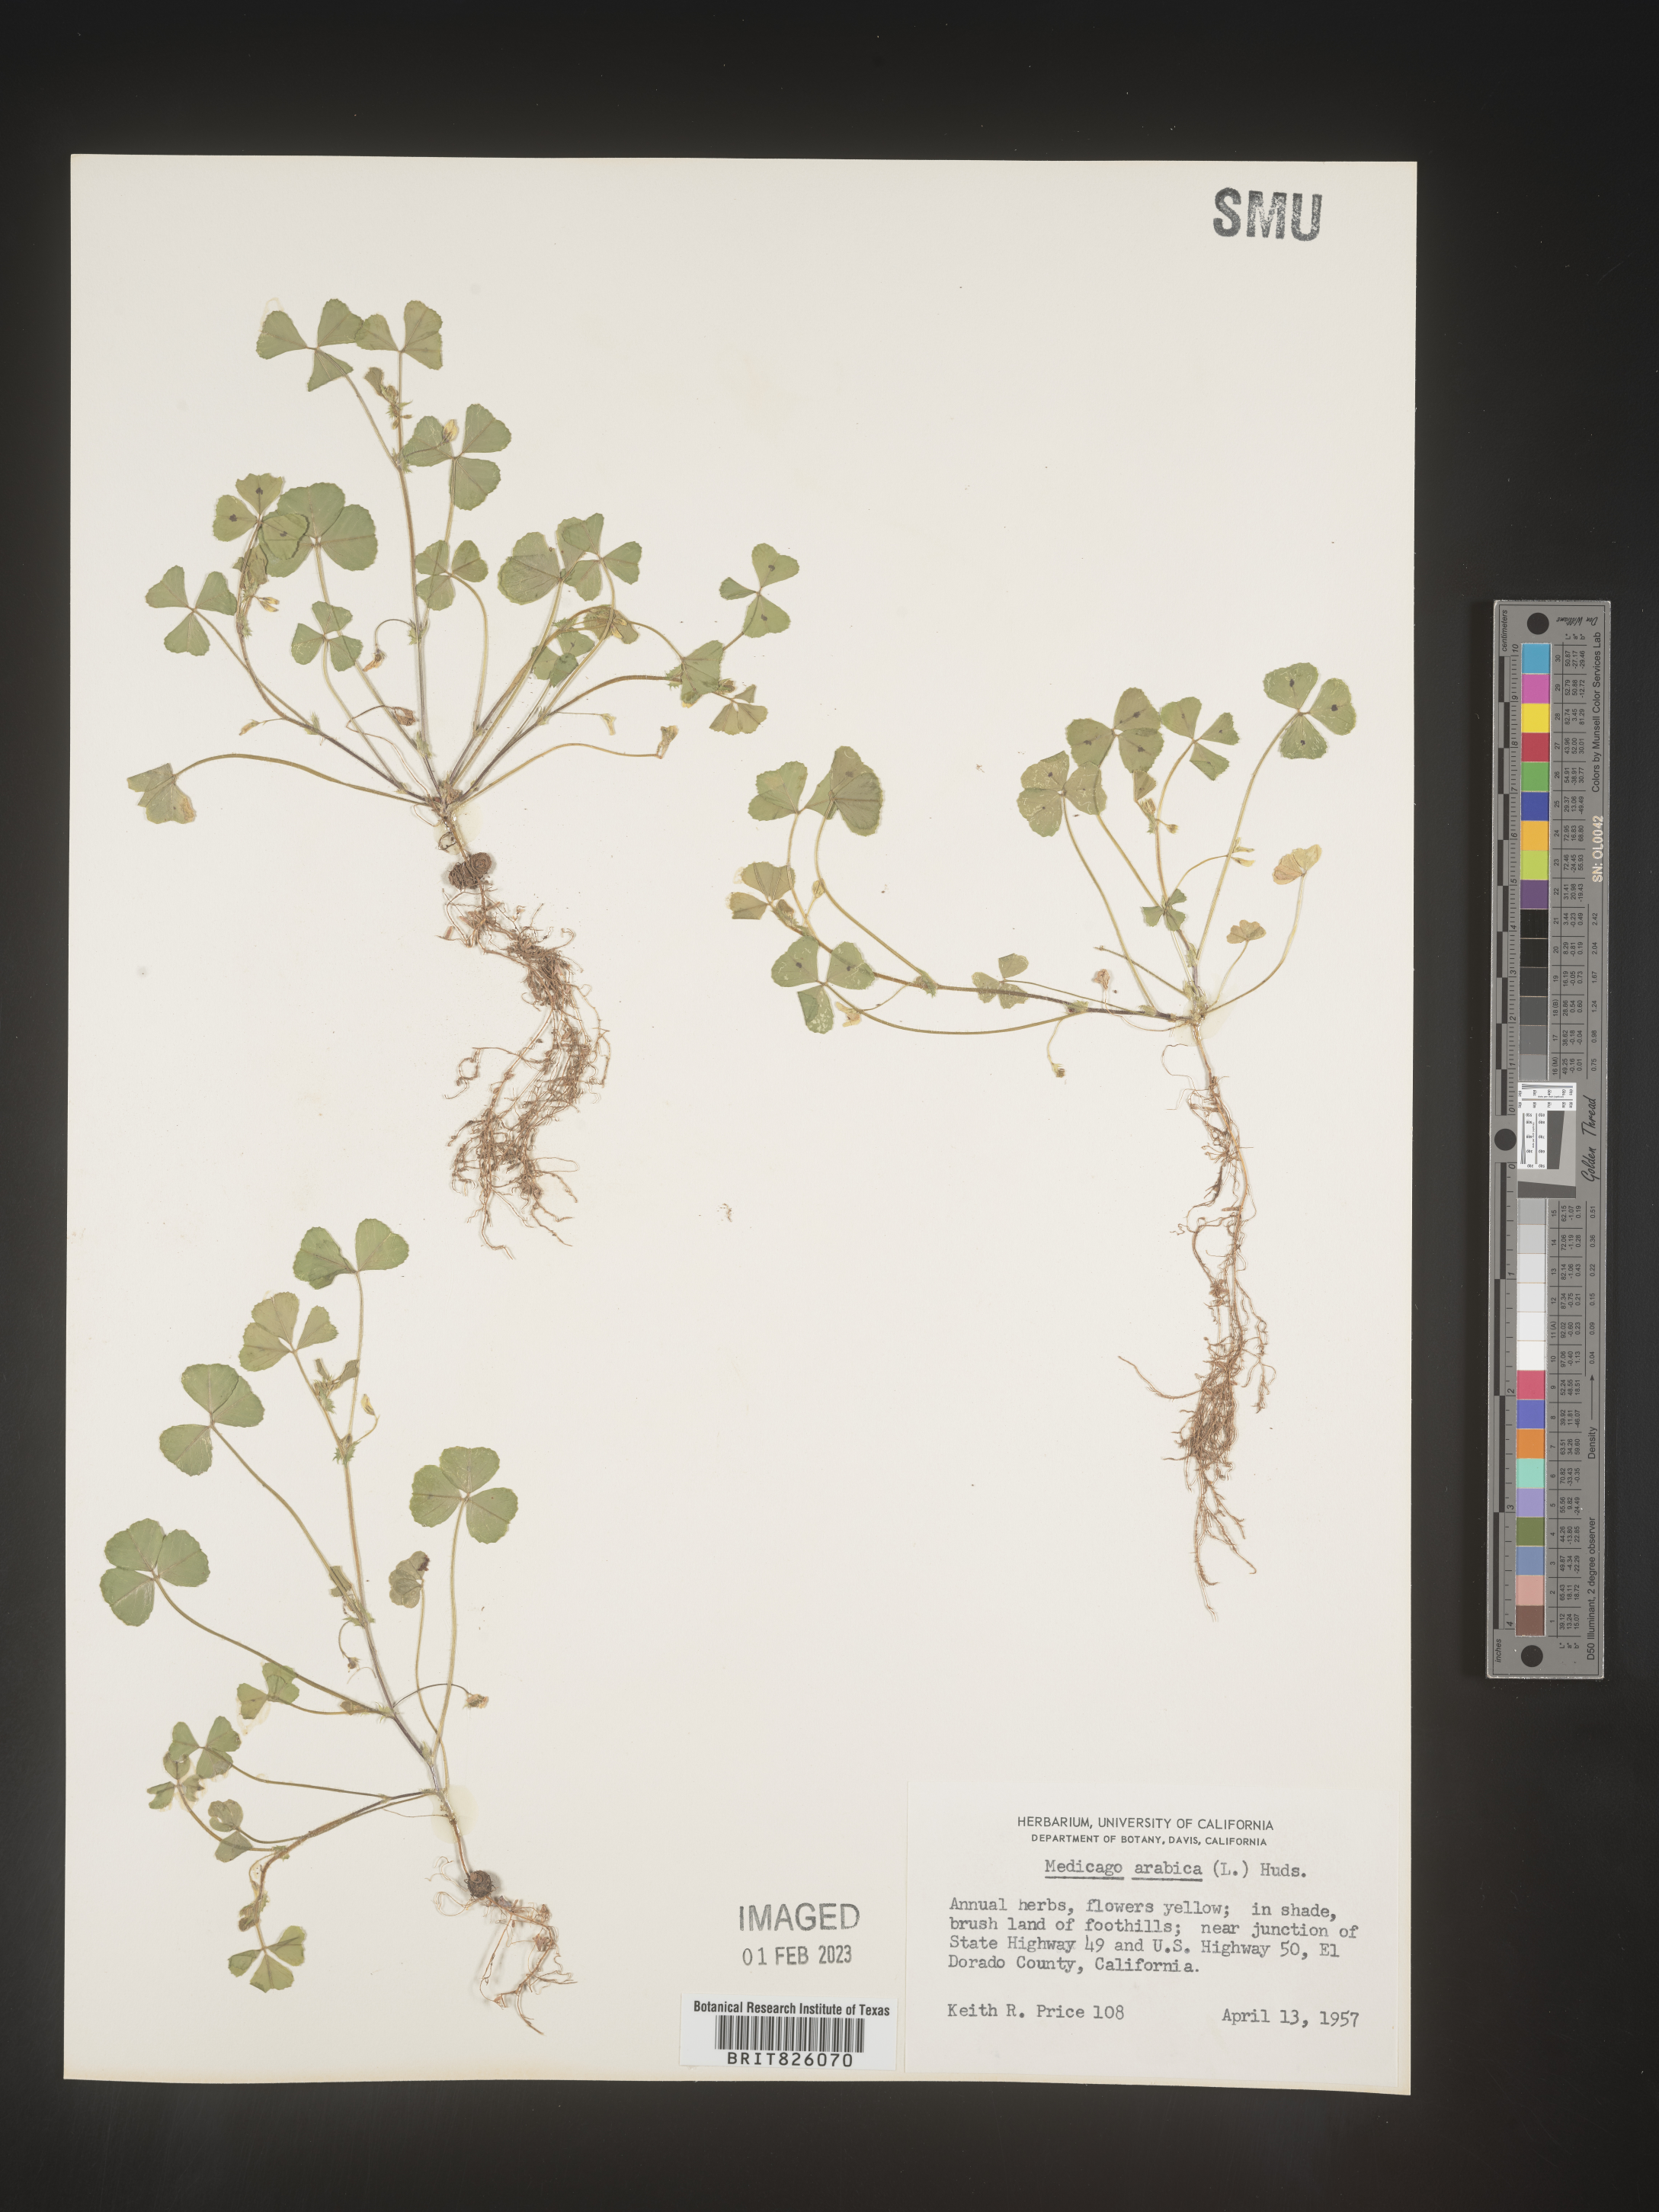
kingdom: Plantae
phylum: Tracheophyta
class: Magnoliopsida
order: Fabales
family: Fabaceae
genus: Medicago
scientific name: Medicago arabica
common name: Spotted medick
